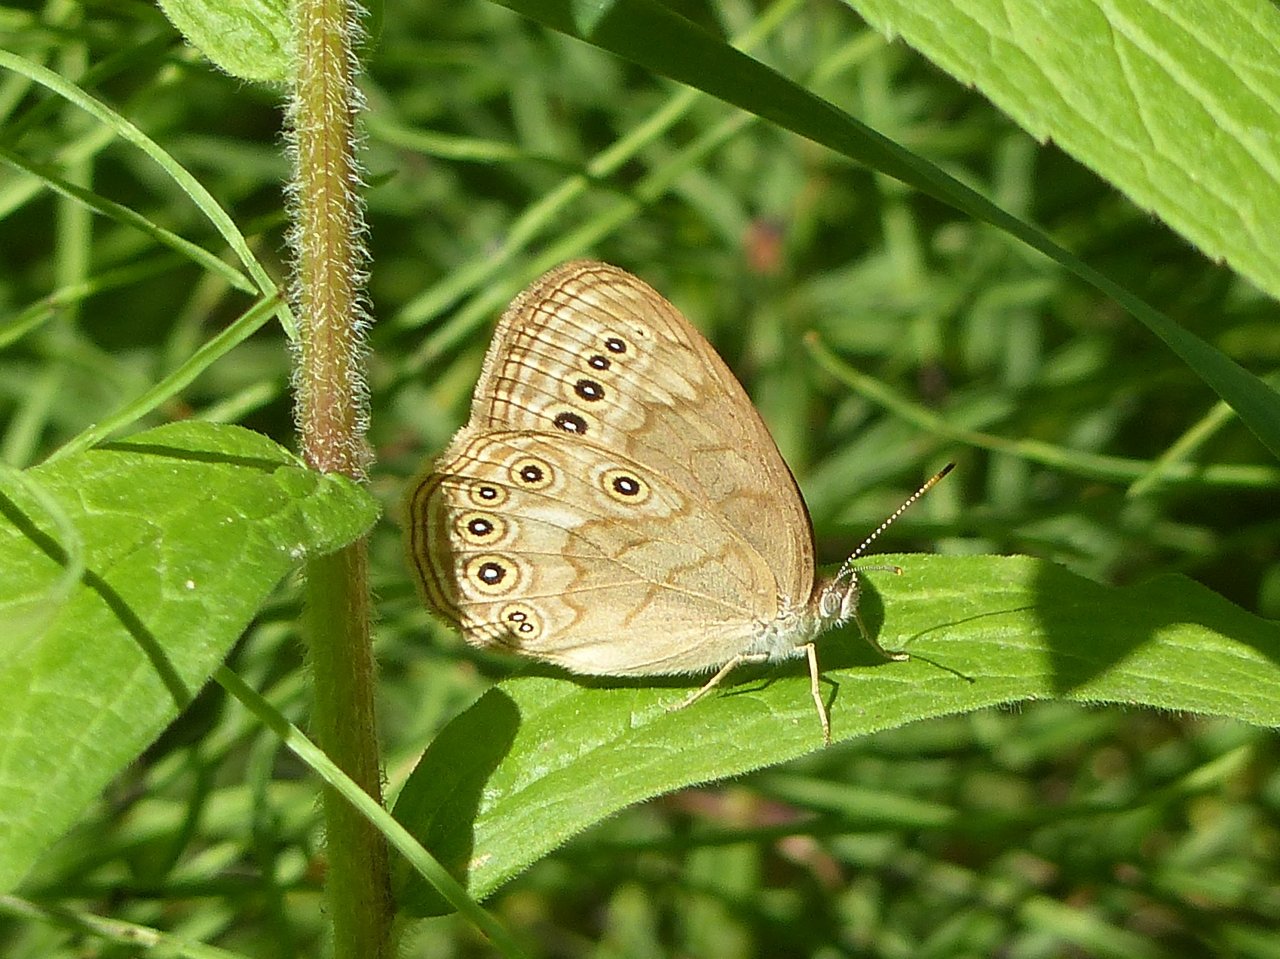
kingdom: Animalia
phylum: Arthropoda
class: Insecta
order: Lepidoptera
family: Nymphalidae
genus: Lethe
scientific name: Lethe eurydice
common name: Eyed Brown
